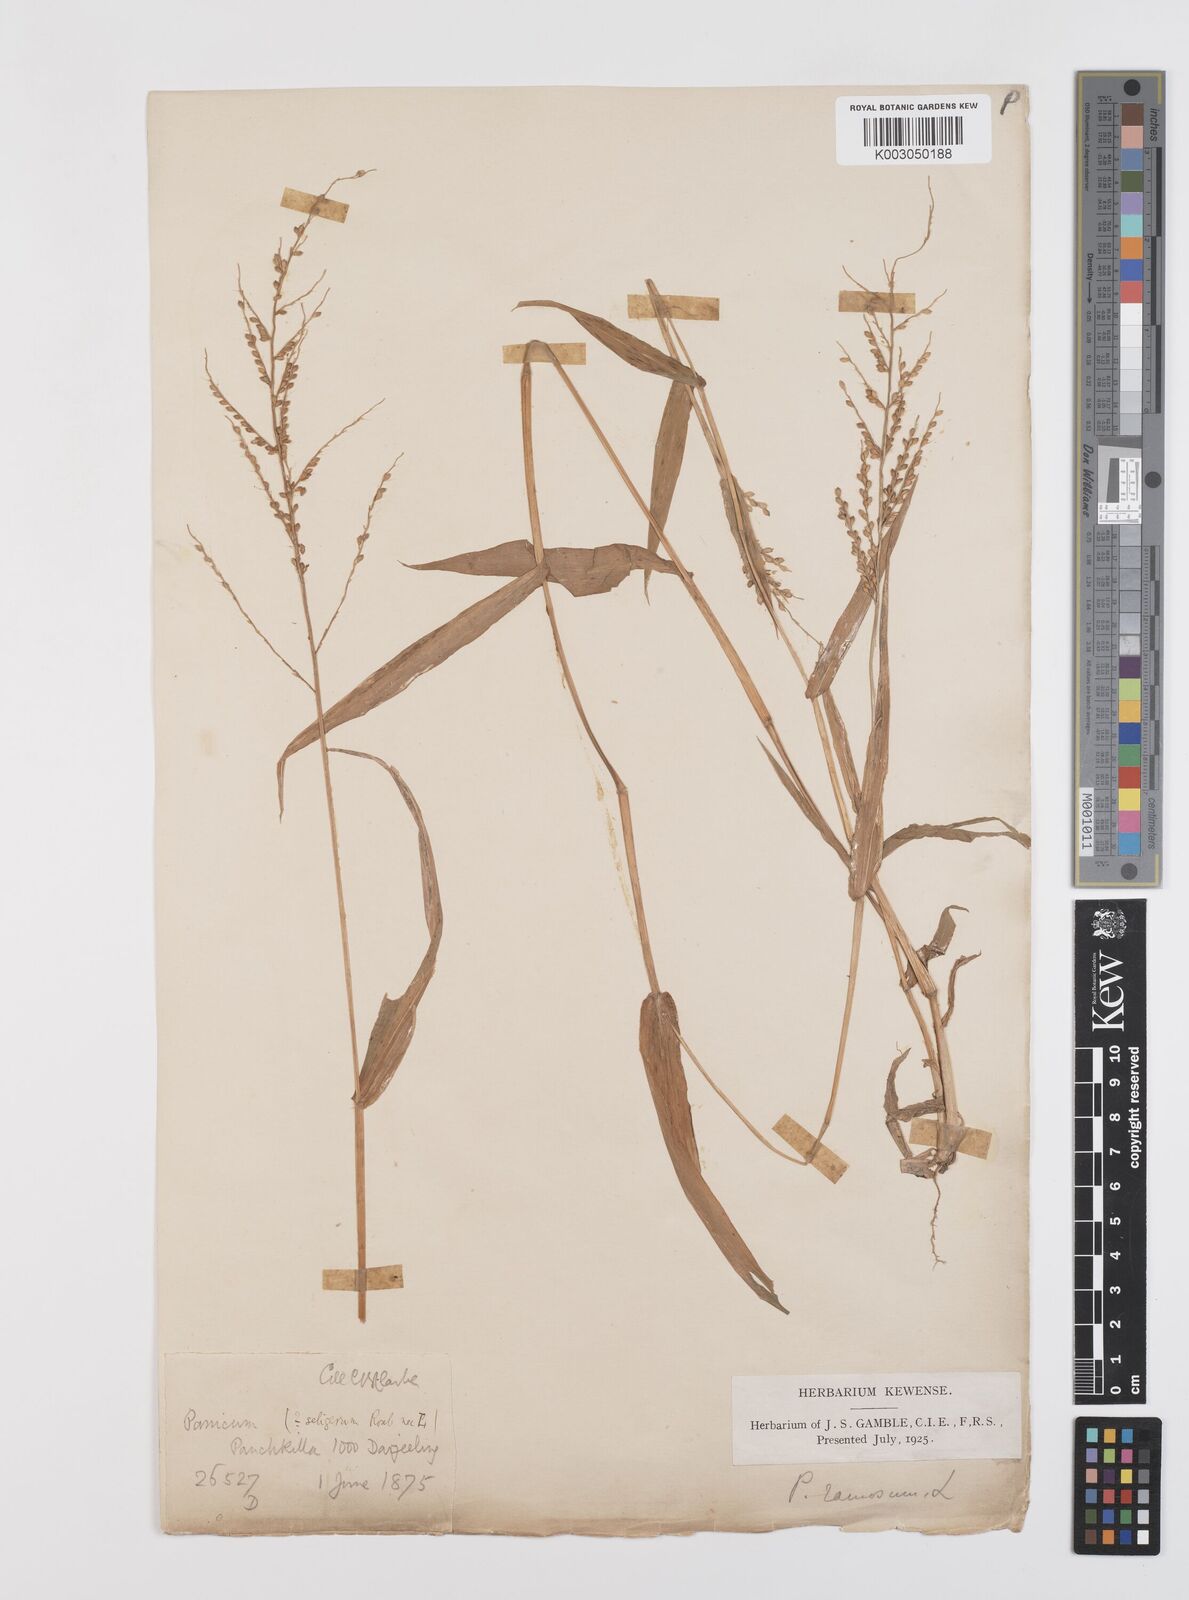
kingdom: Plantae
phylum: Tracheophyta
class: Liliopsida
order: Poales
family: Poaceae
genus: Urochloa
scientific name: Urochloa ramosa
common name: Browntop millet
